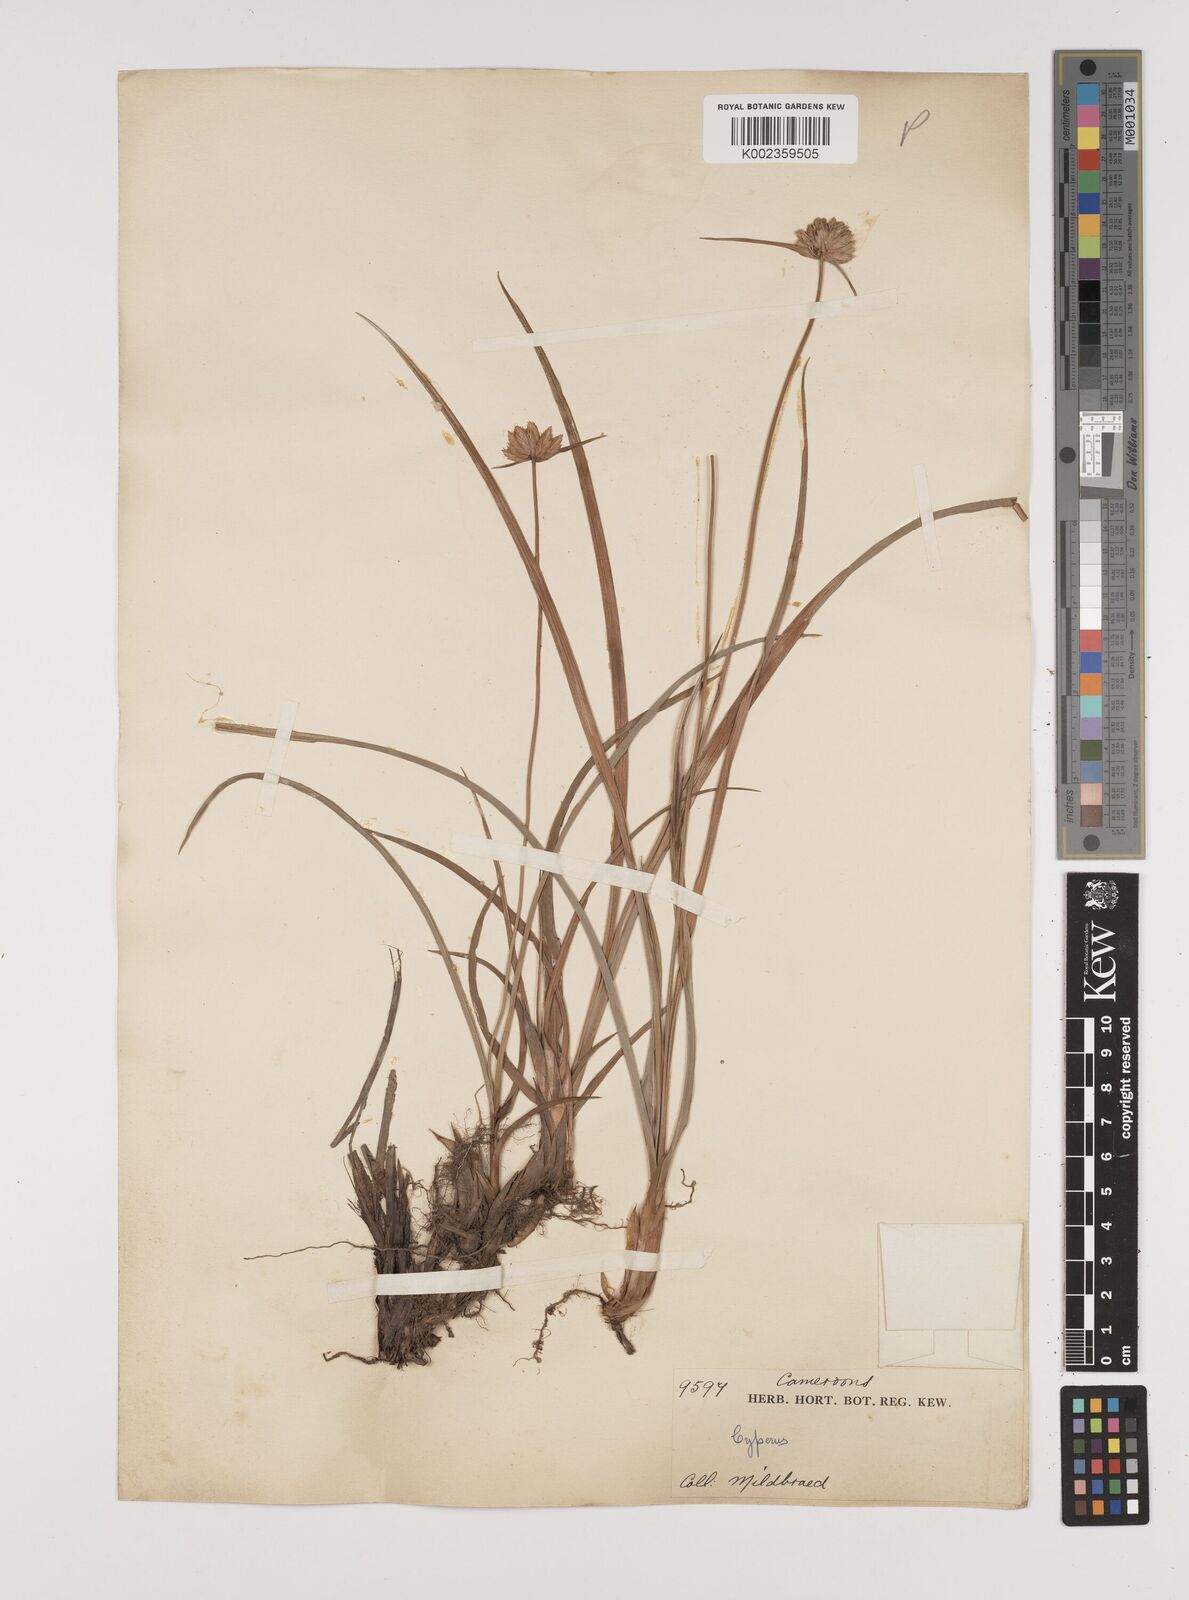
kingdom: Plantae
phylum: Tracheophyta
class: Liliopsida
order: Poales
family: Cyperaceae
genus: Cyperus
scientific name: Cyperus angolensis
